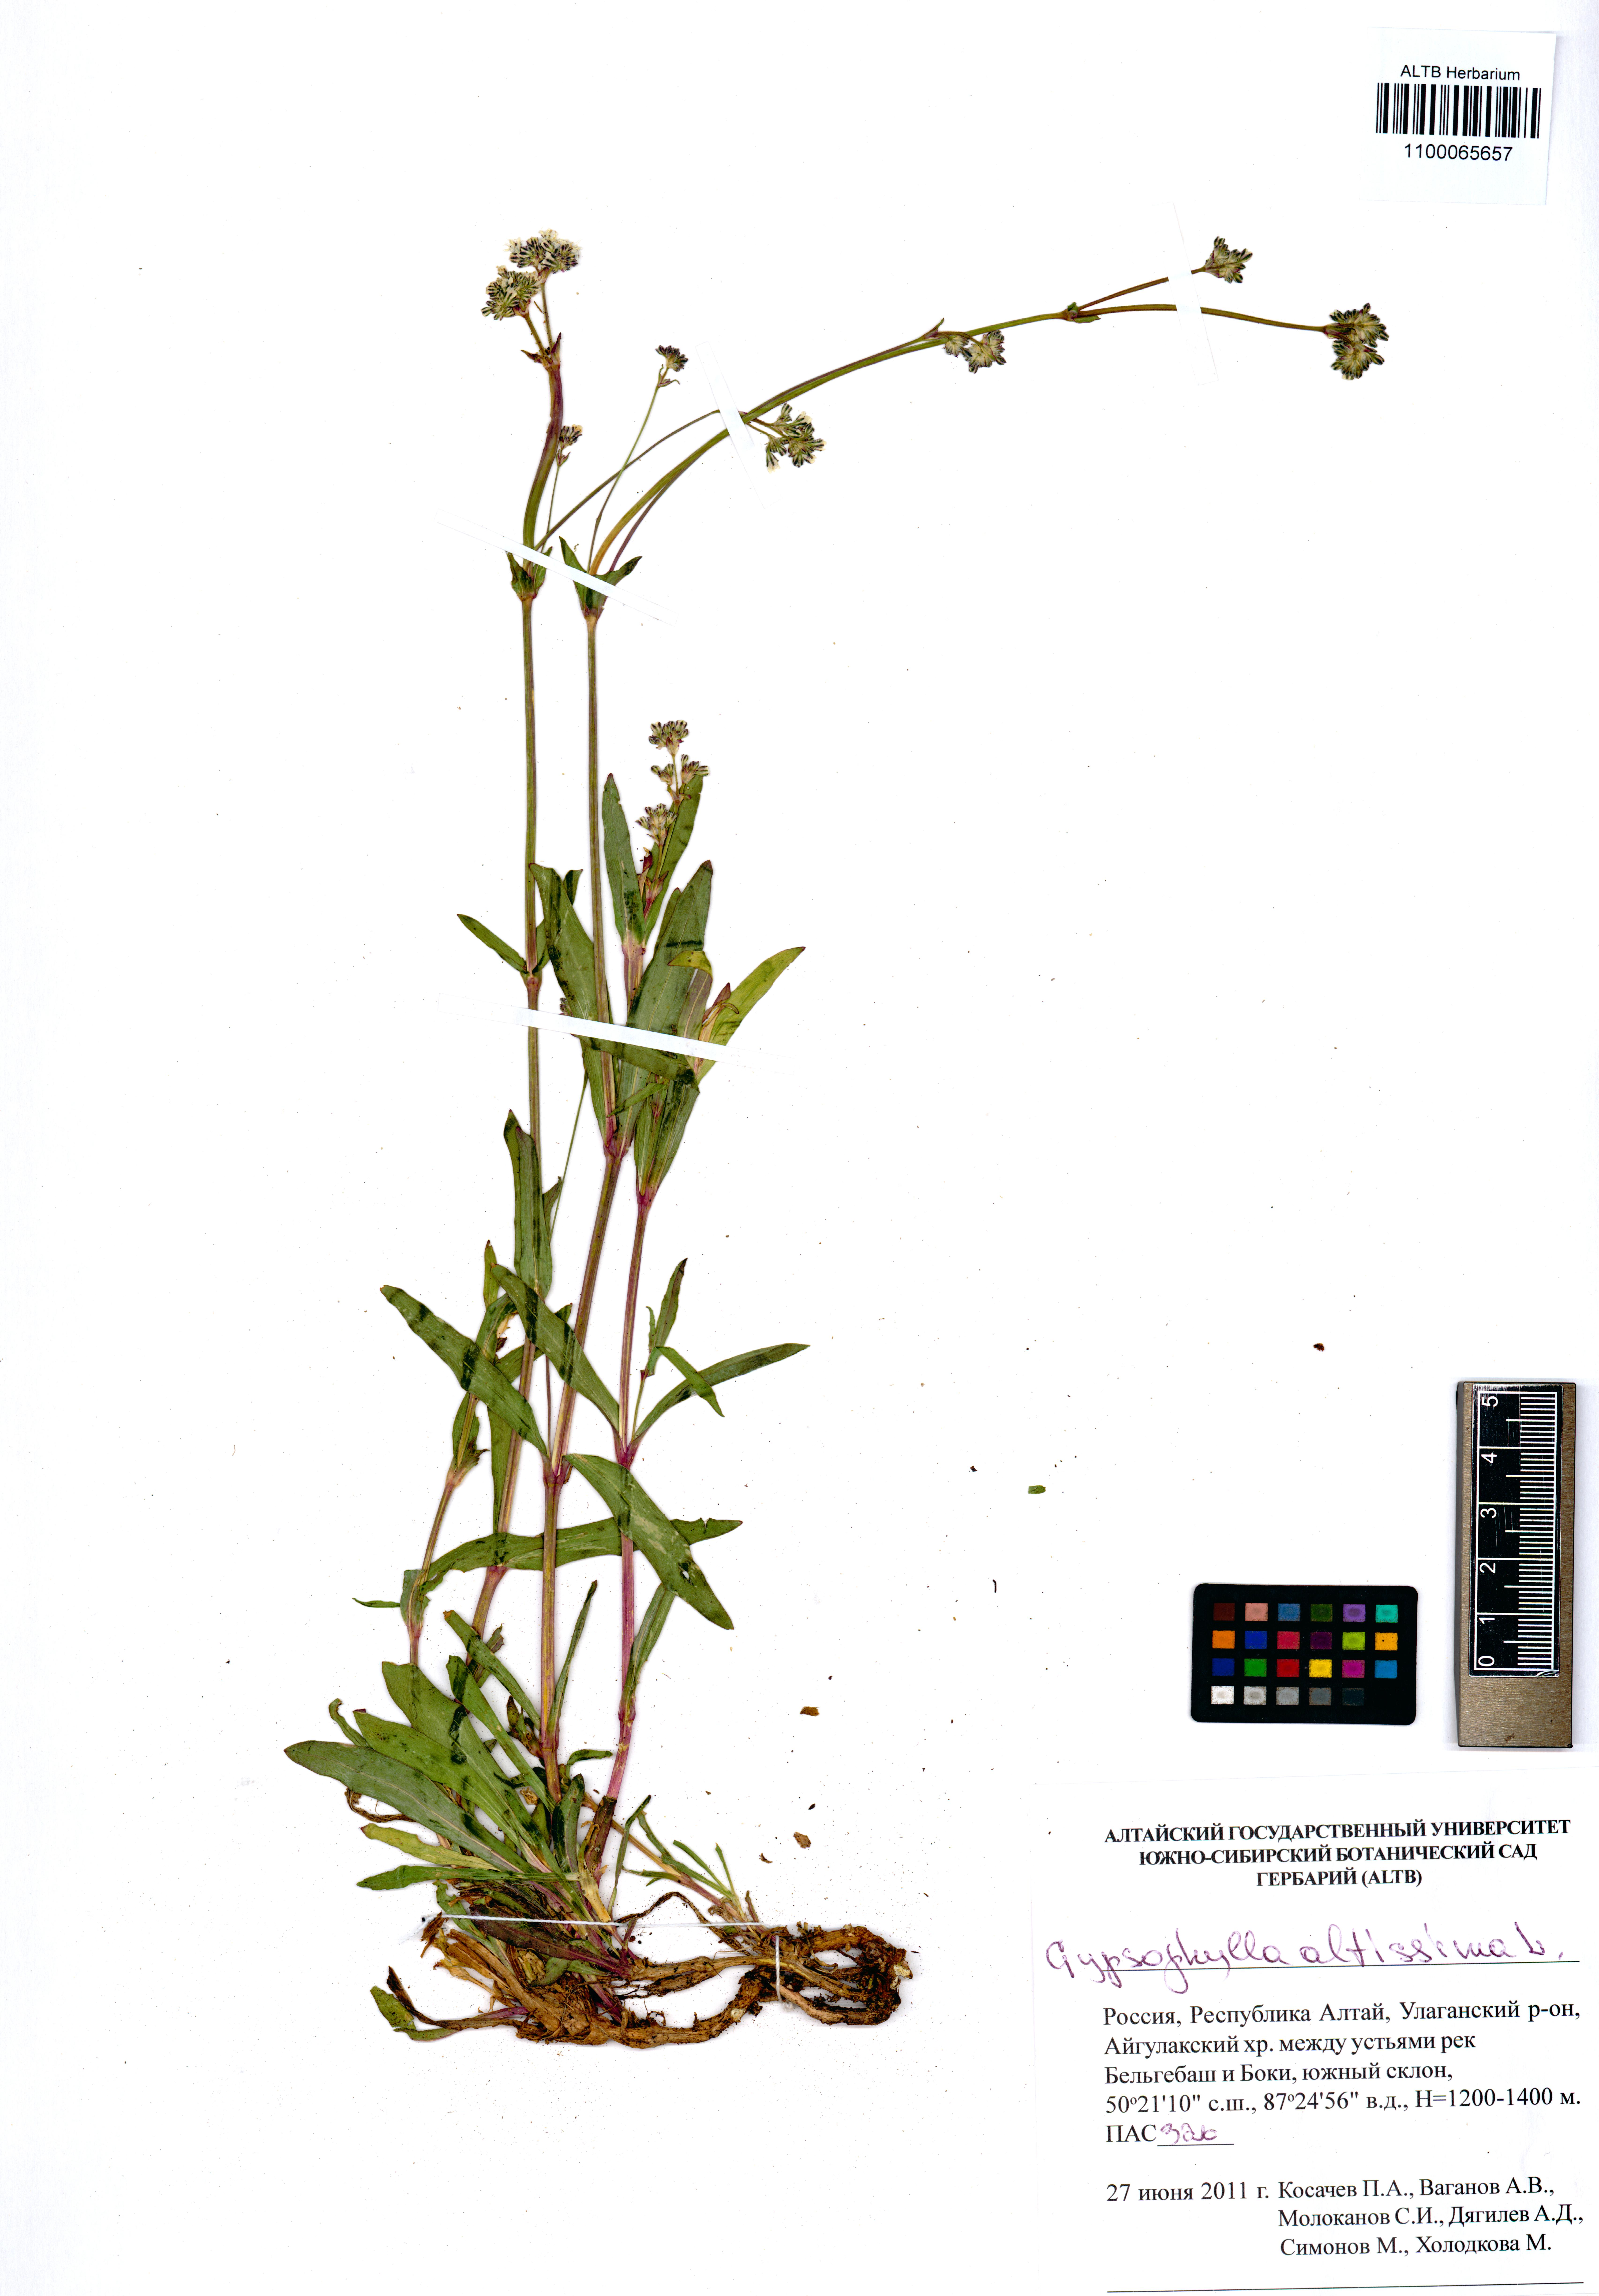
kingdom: Plantae
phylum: Tracheophyta
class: Magnoliopsida
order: Caryophyllales
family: Caryophyllaceae
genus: Heterochroa
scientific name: Heterochroa petraea
